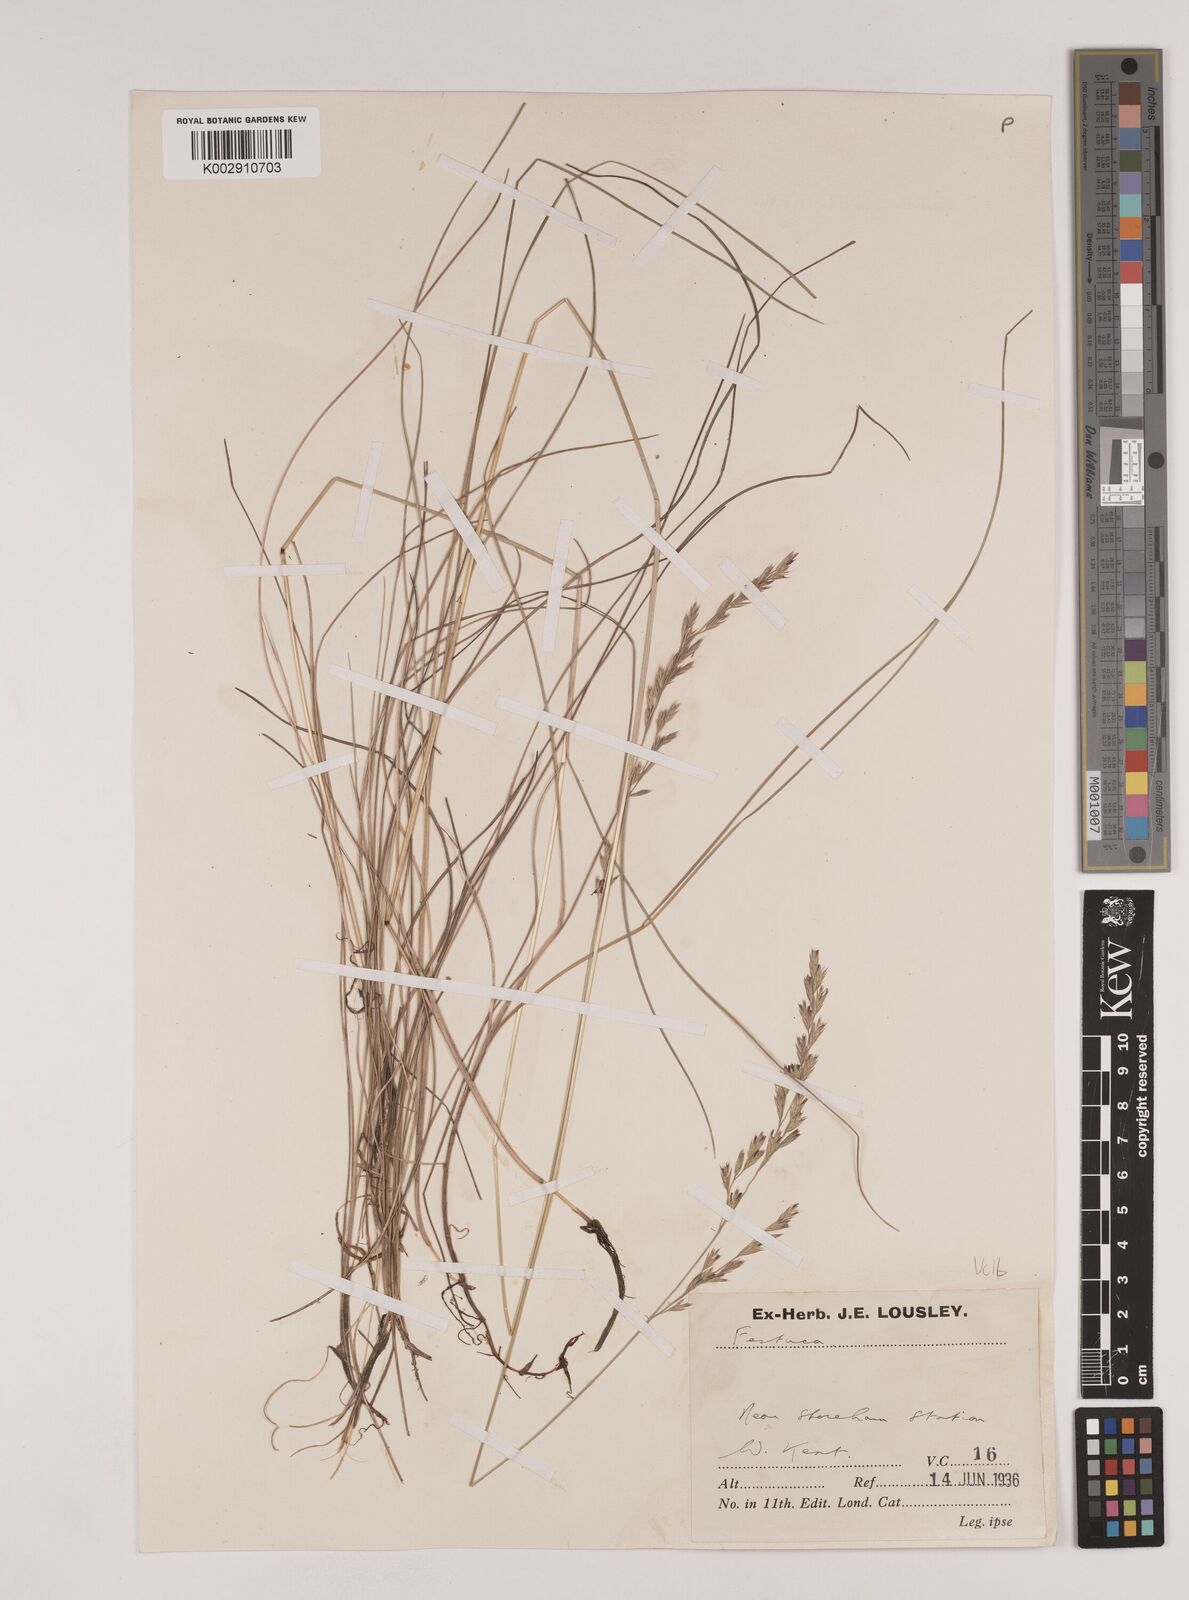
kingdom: Plantae
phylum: Tracheophyta
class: Liliopsida
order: Poales
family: Poaceae
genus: Festuca
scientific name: Festuca rubra
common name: Red fescue
